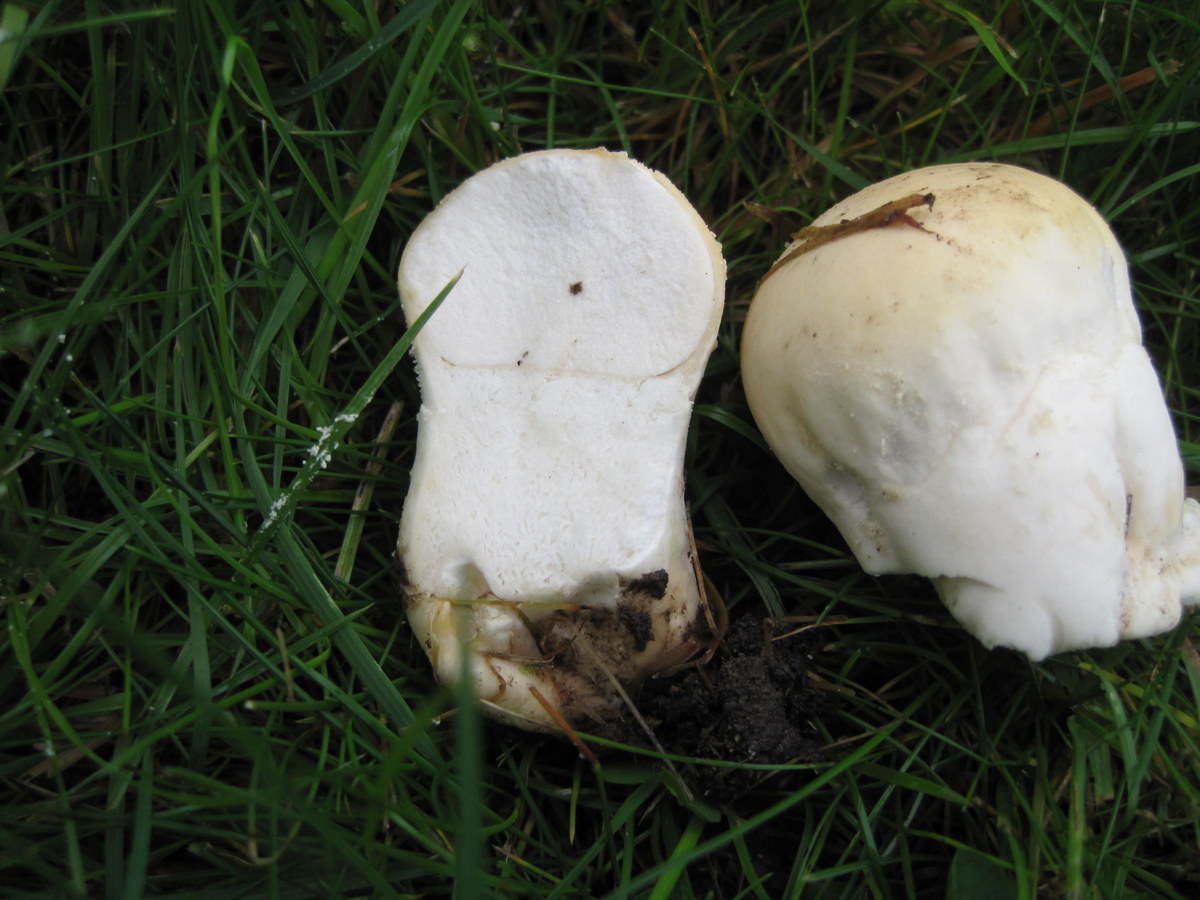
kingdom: Fungi
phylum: Basidiomycota
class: Agaricomycetes
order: Agaricales
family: Lycoperdaceae
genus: Lycoperdon
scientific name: Lycoperdon pratense
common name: flad støvbold
